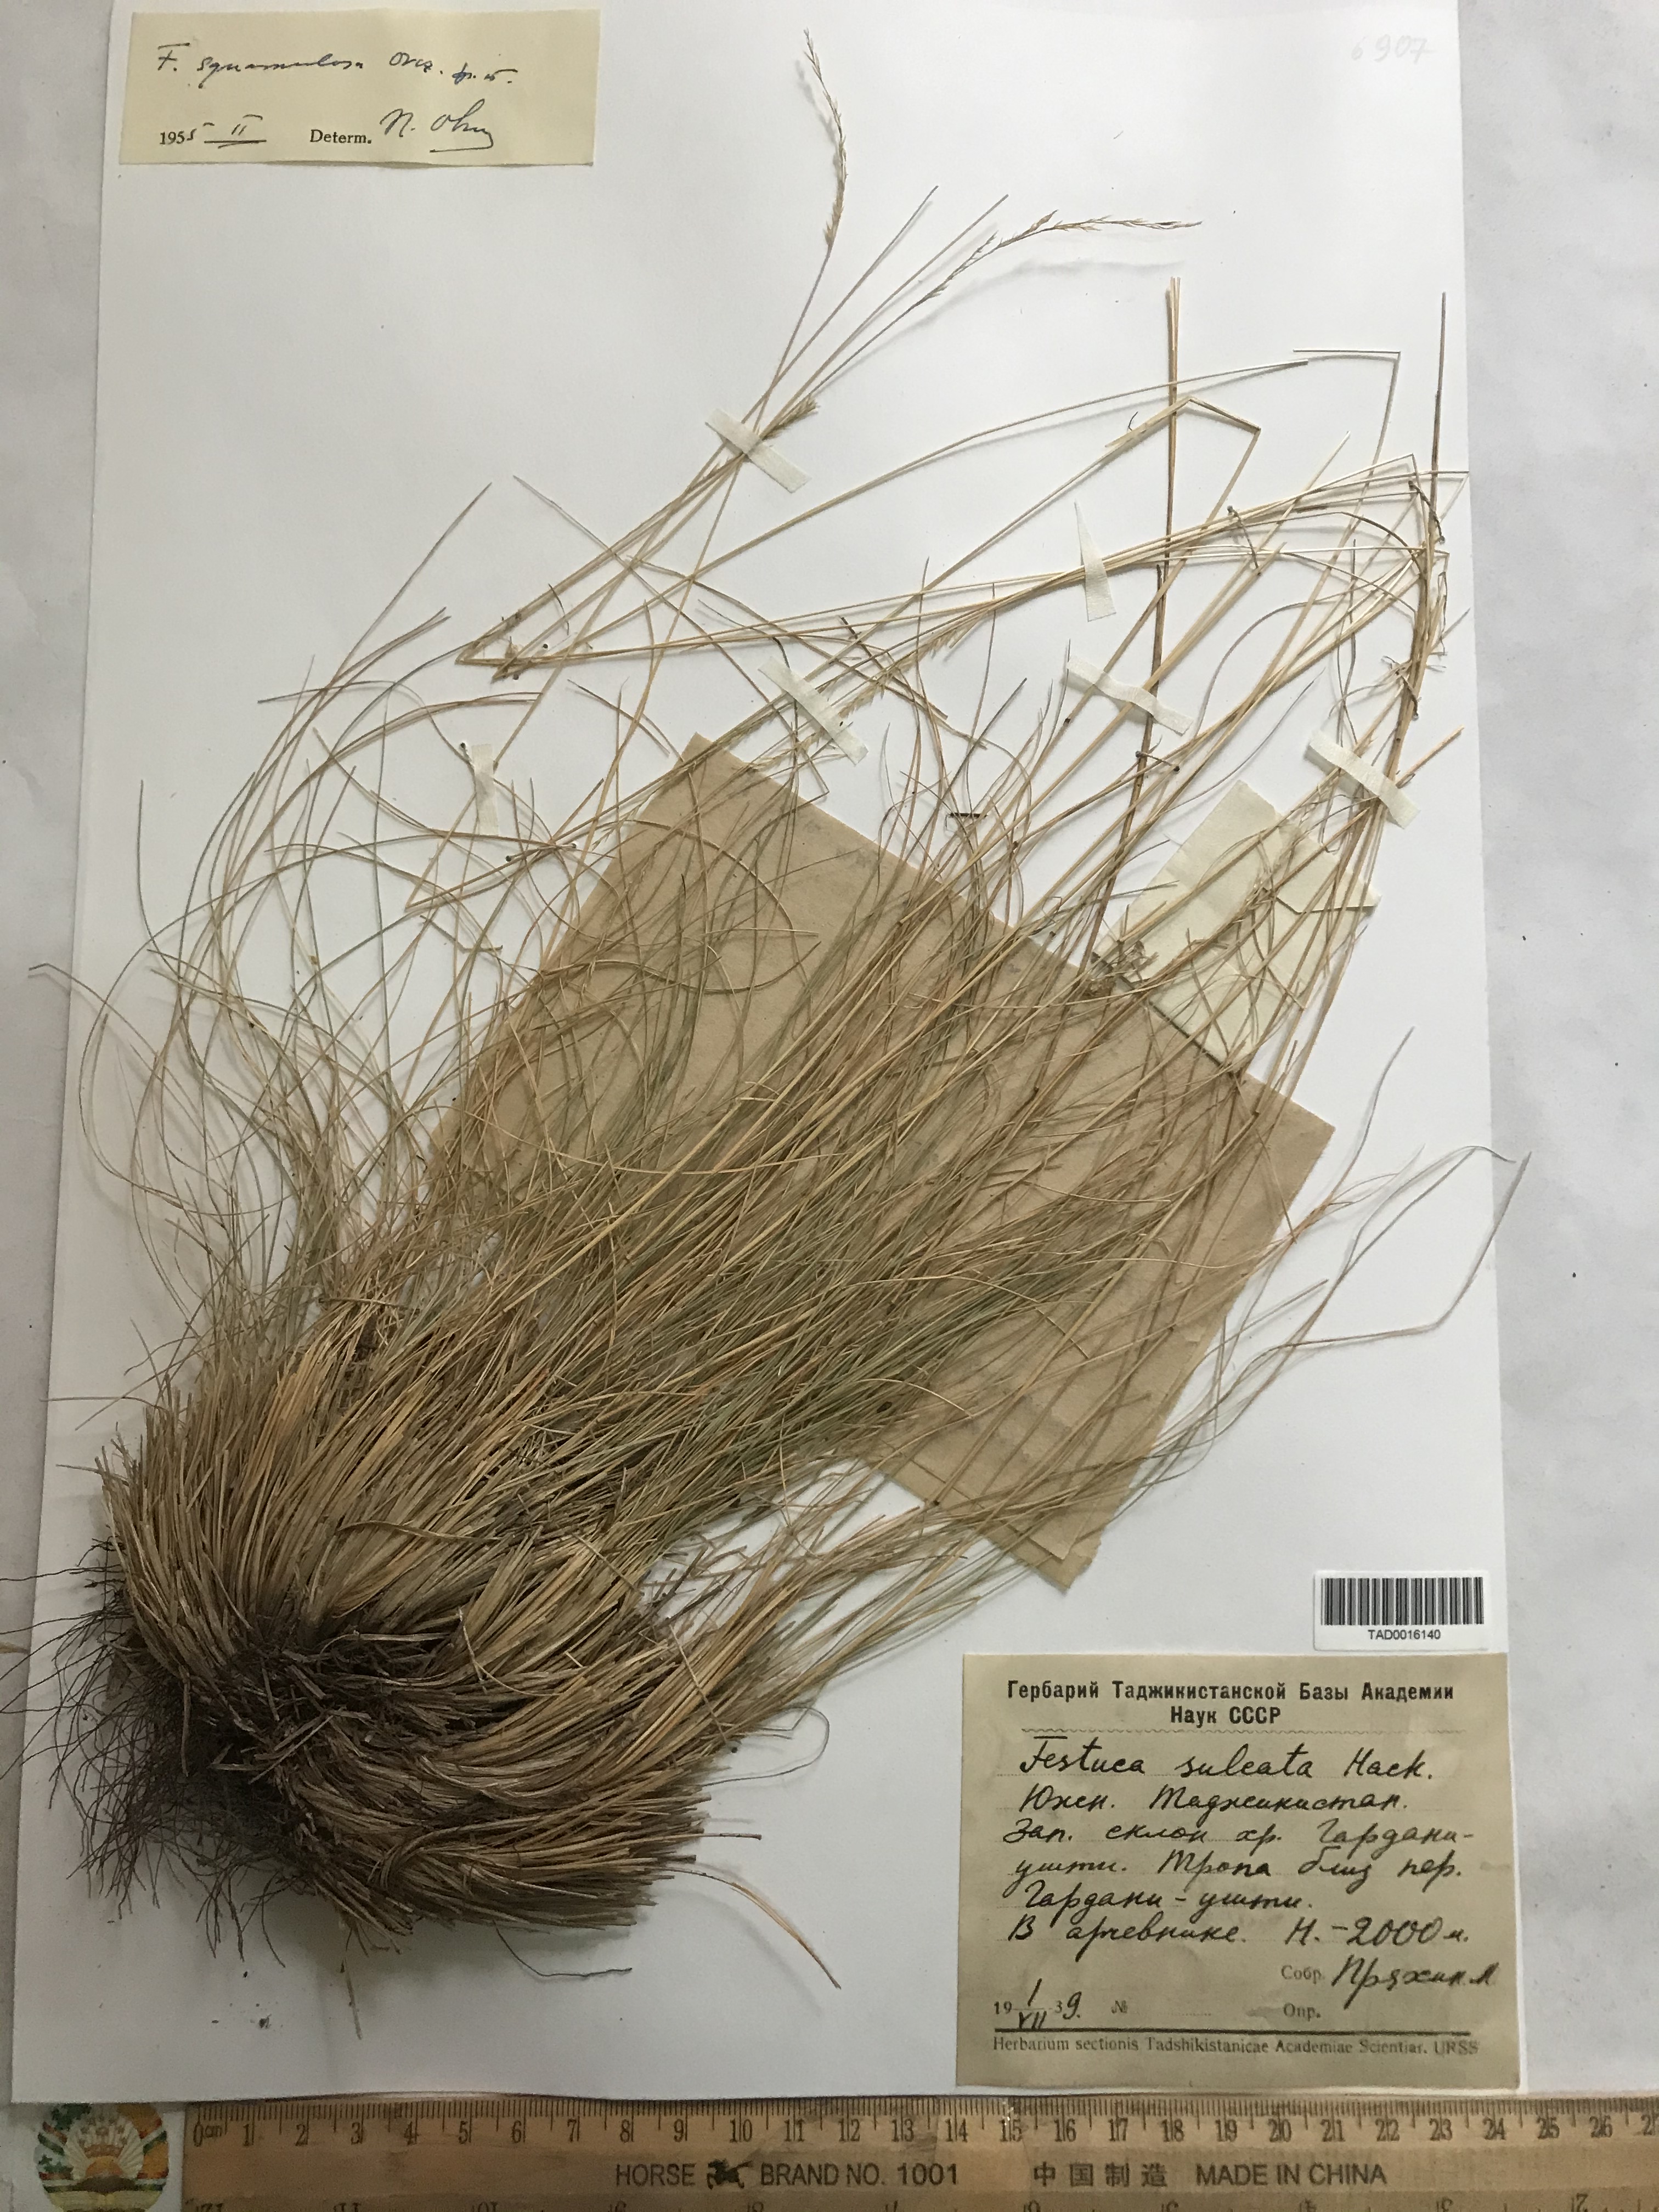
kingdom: Plantae
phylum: Tracheophyta
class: Liliopsida
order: Poales
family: Poaceae
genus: Festuca
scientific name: Festuca sulcata
